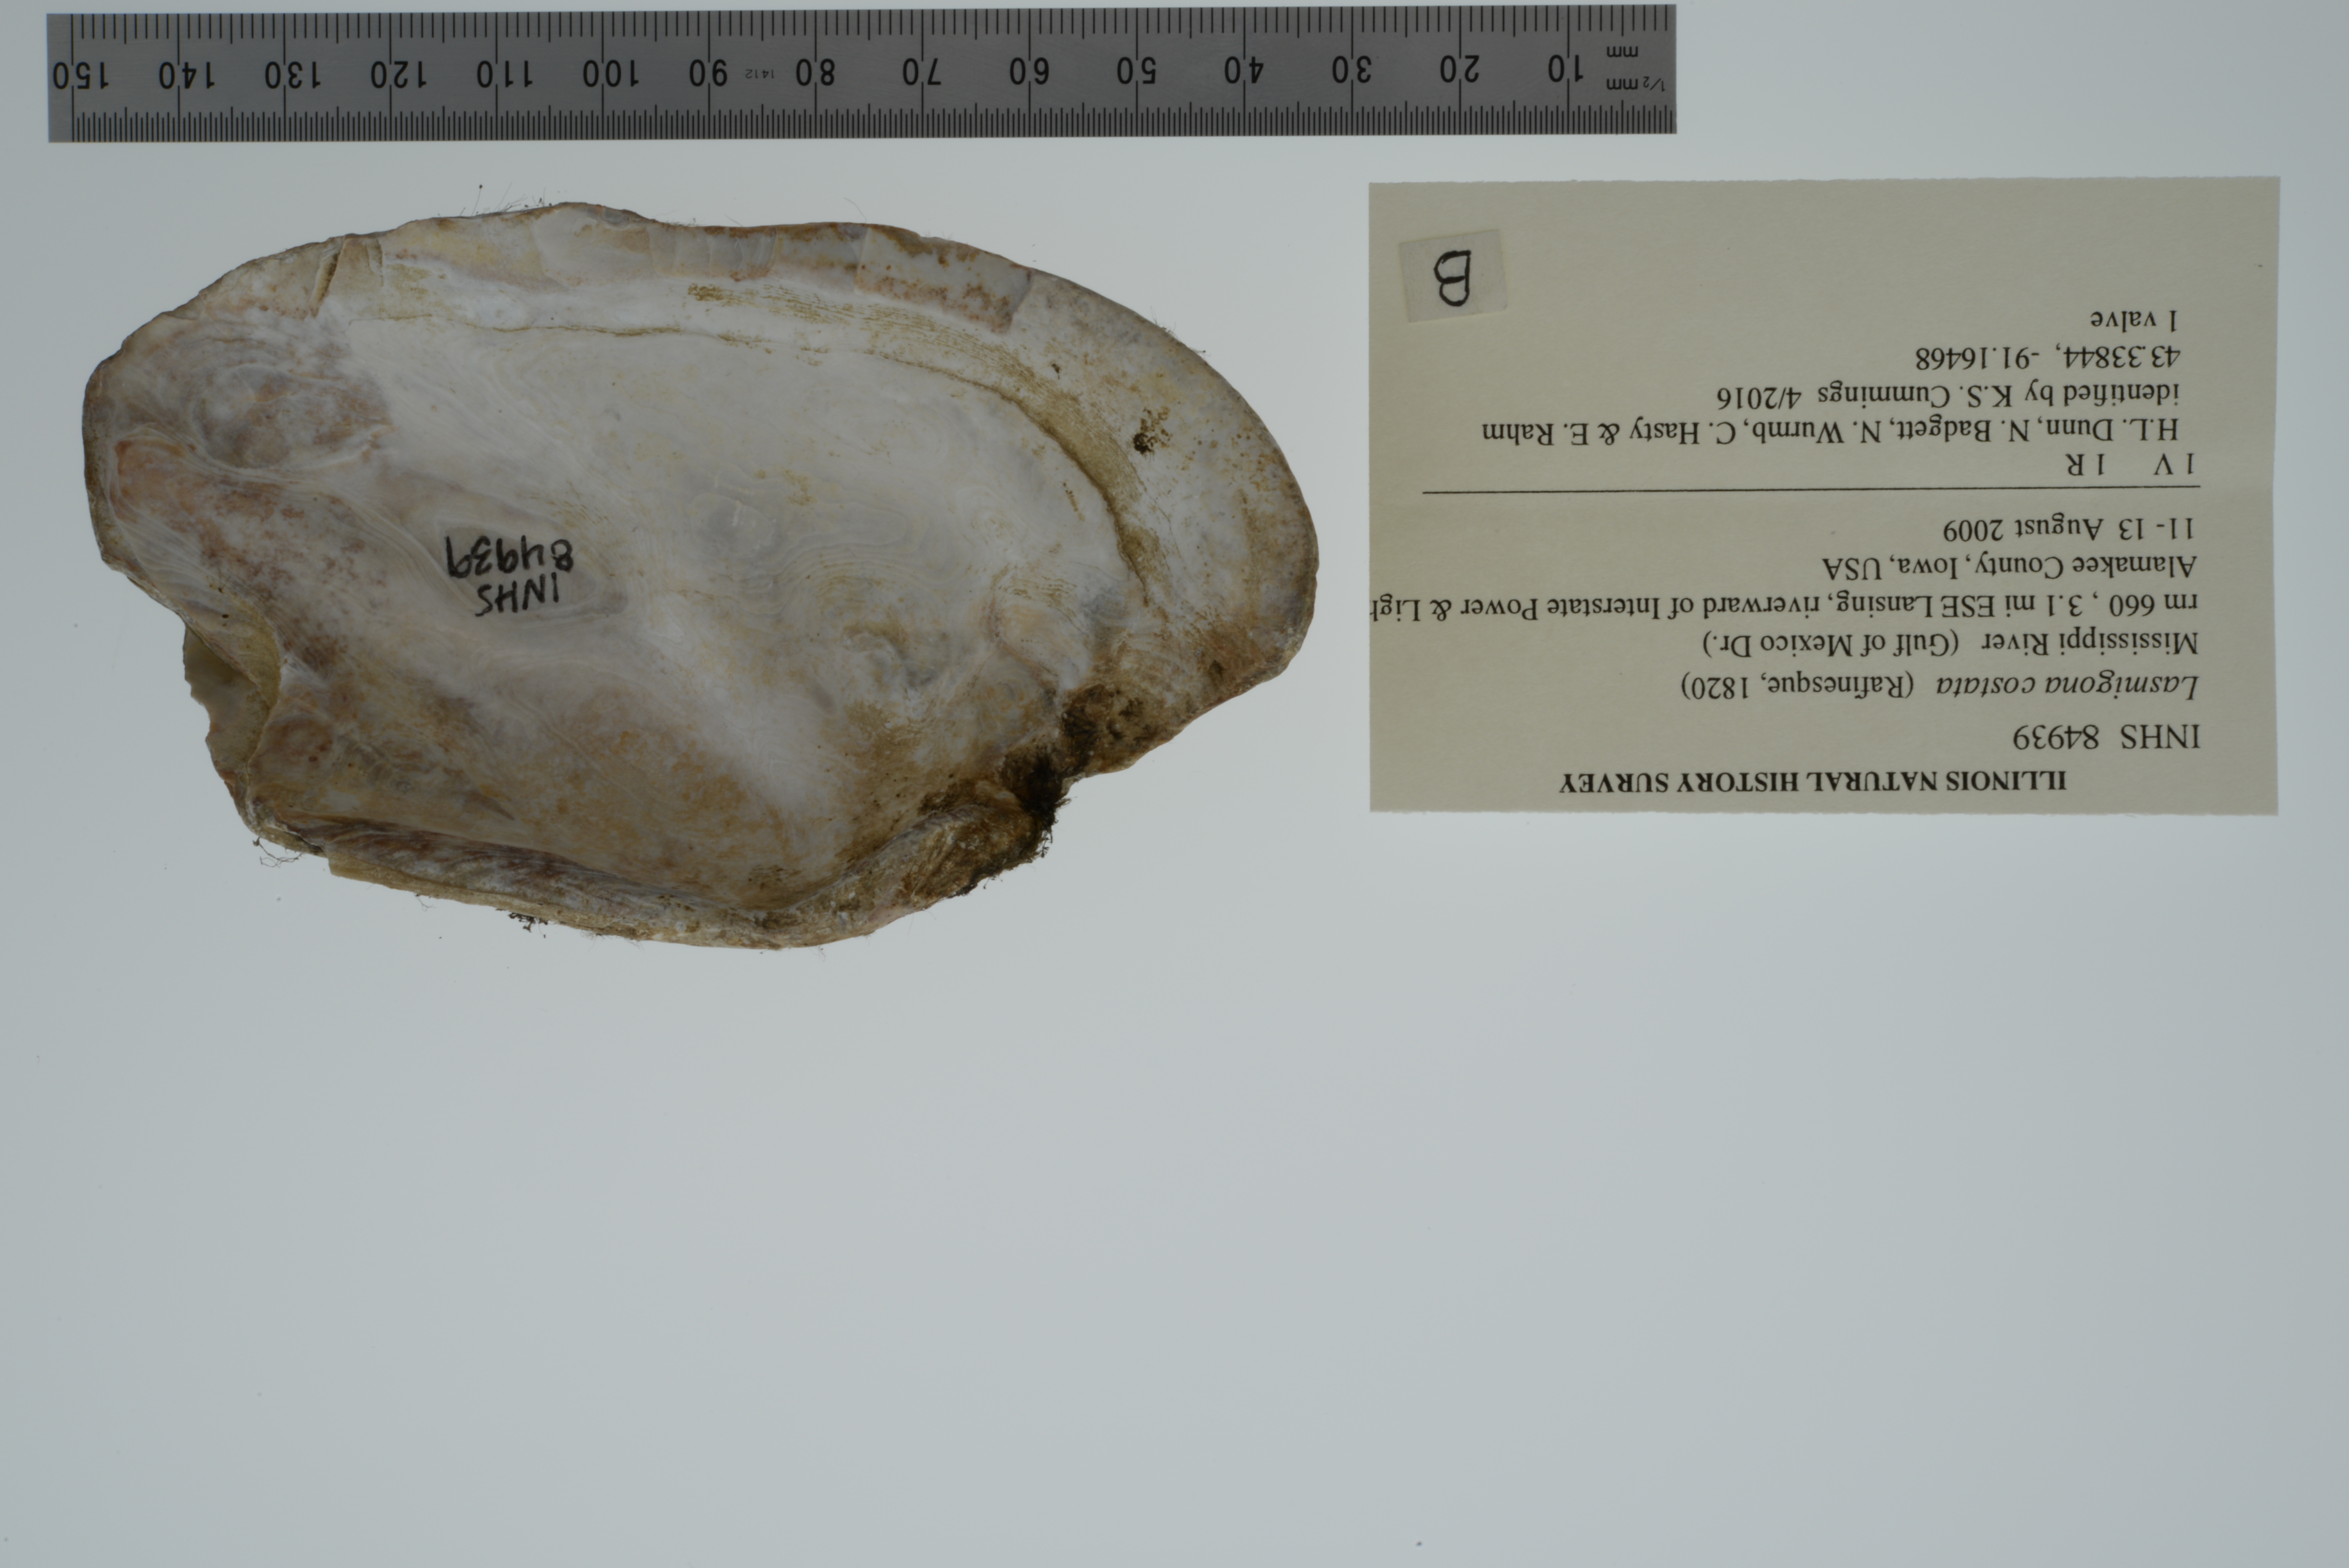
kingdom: Animalia
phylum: Mollusca
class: Bivalvia
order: Unionida
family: Unionidae
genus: Lasmigona
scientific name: Lasmigona costata
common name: Flutedshell
